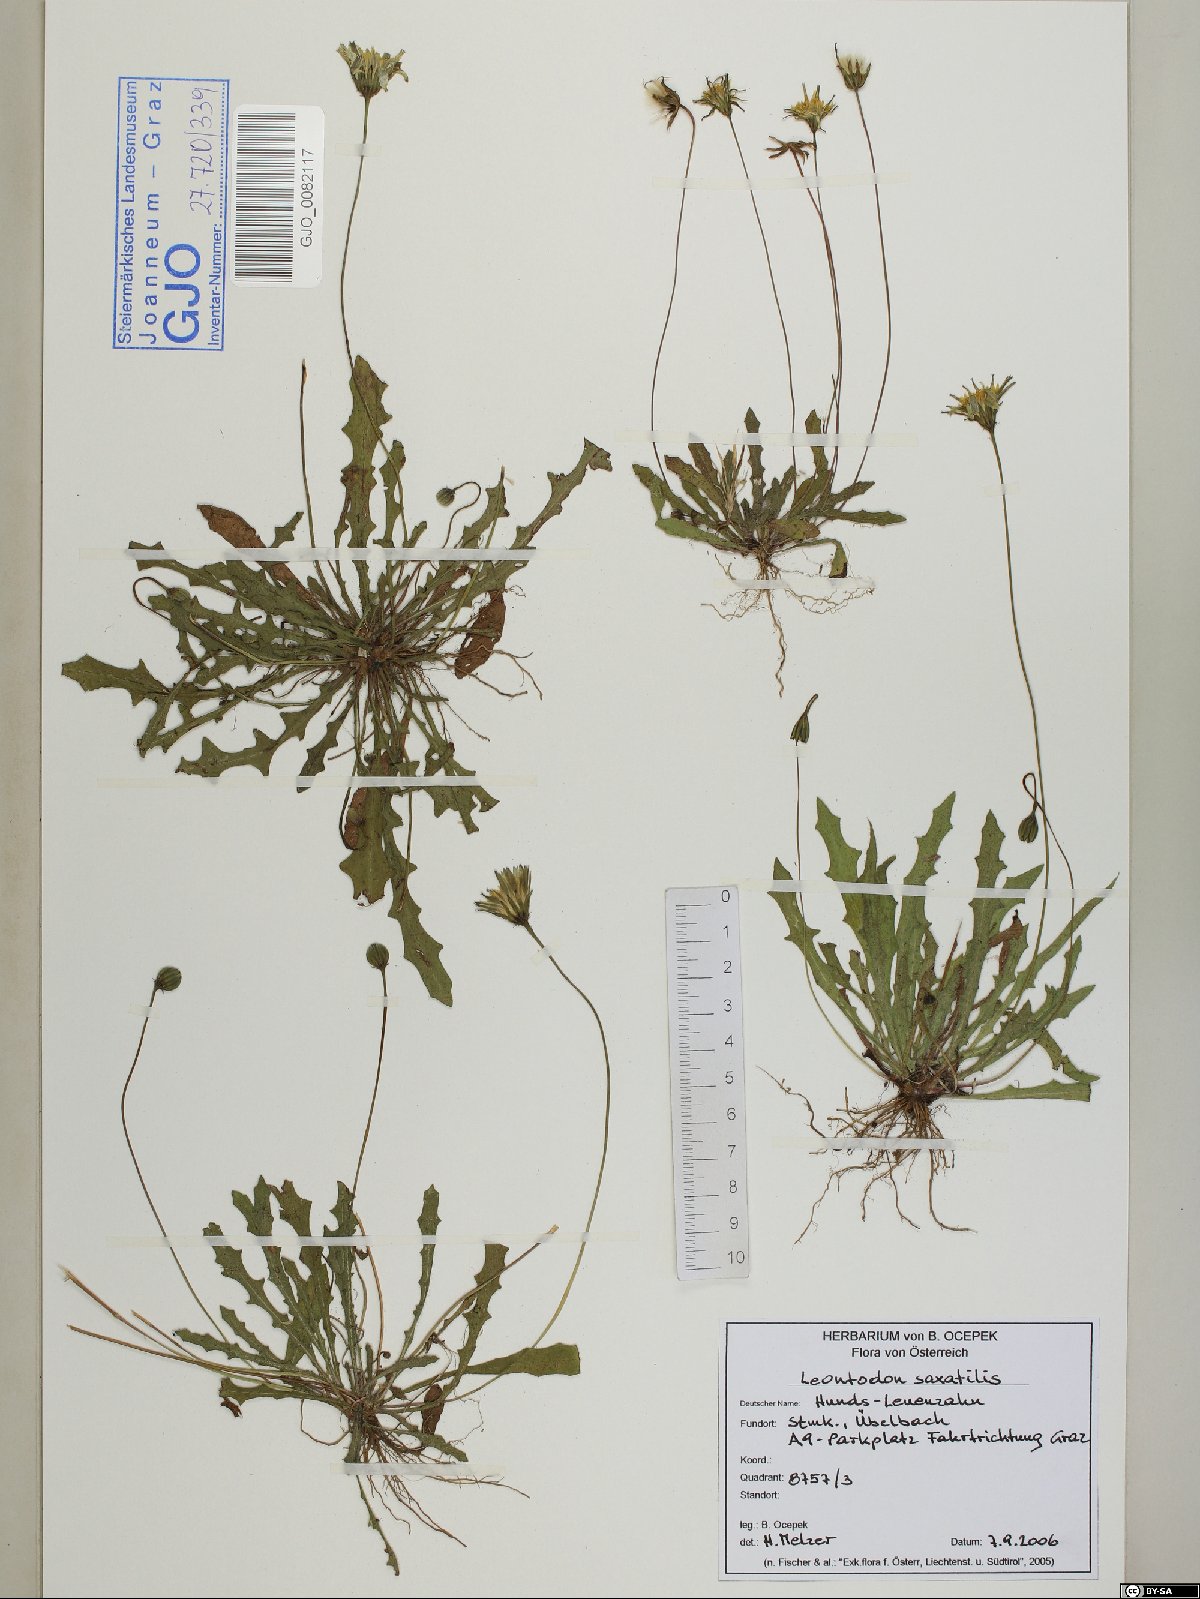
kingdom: Plantae
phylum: Tracheophyta
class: Magnoliopsida
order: Asterales
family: Asteraceae
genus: Thrincia
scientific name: Thrincia saxatilis
